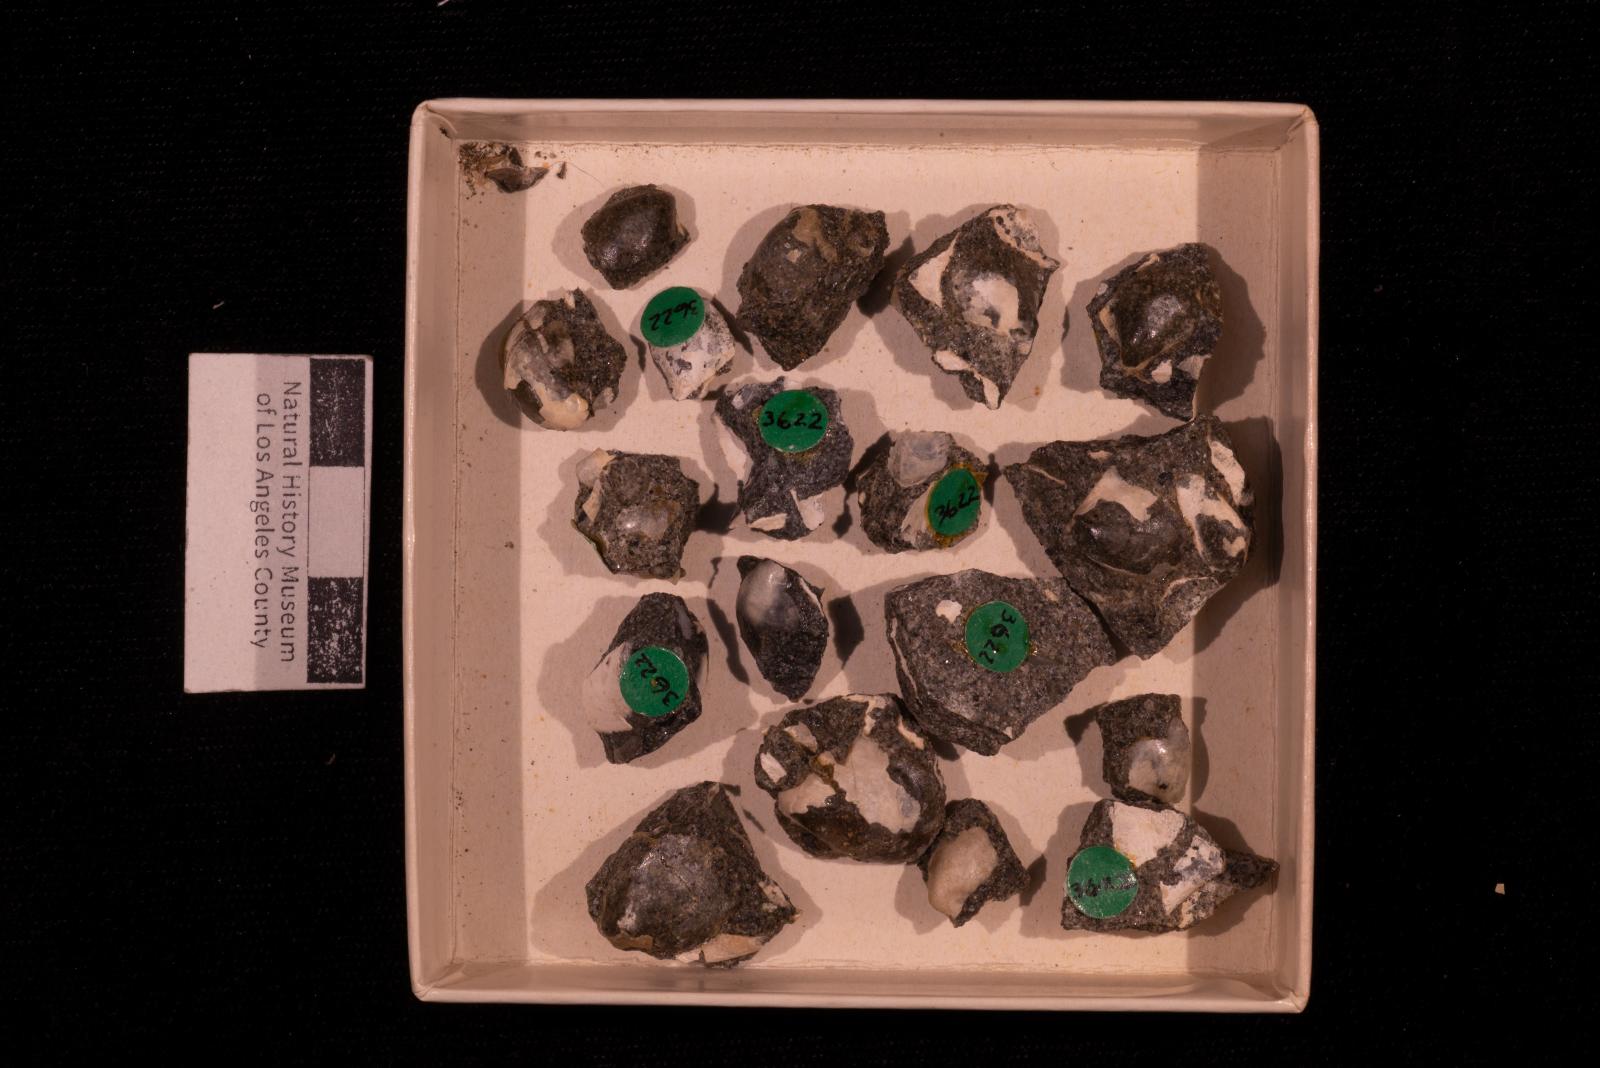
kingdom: Animalia
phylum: Mollusca
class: Bivalvia
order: Ostreida
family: Pteriidae
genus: Pteria
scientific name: Pteria pellucida
